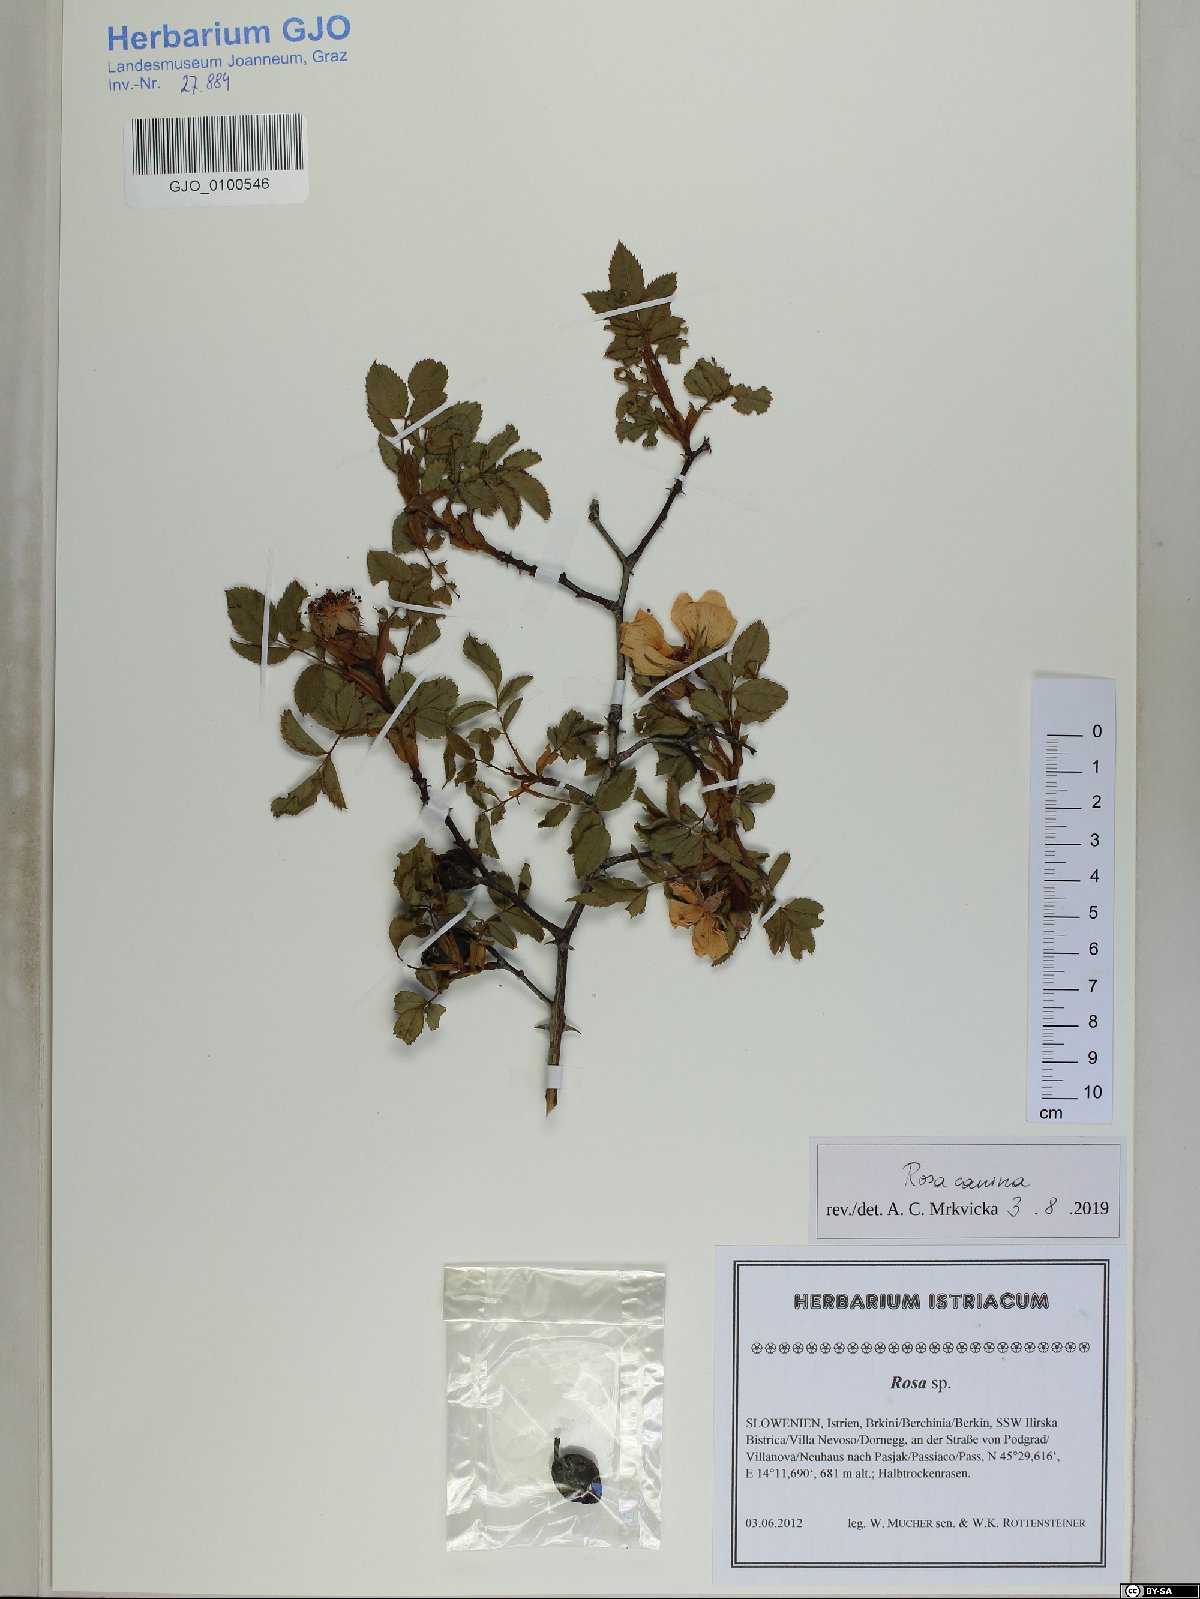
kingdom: Plantae
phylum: Tracheophyta
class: Magnoliopsida
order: Rosales
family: Rosaceae
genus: Rosa
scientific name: Rosa canina
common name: Dog rose
